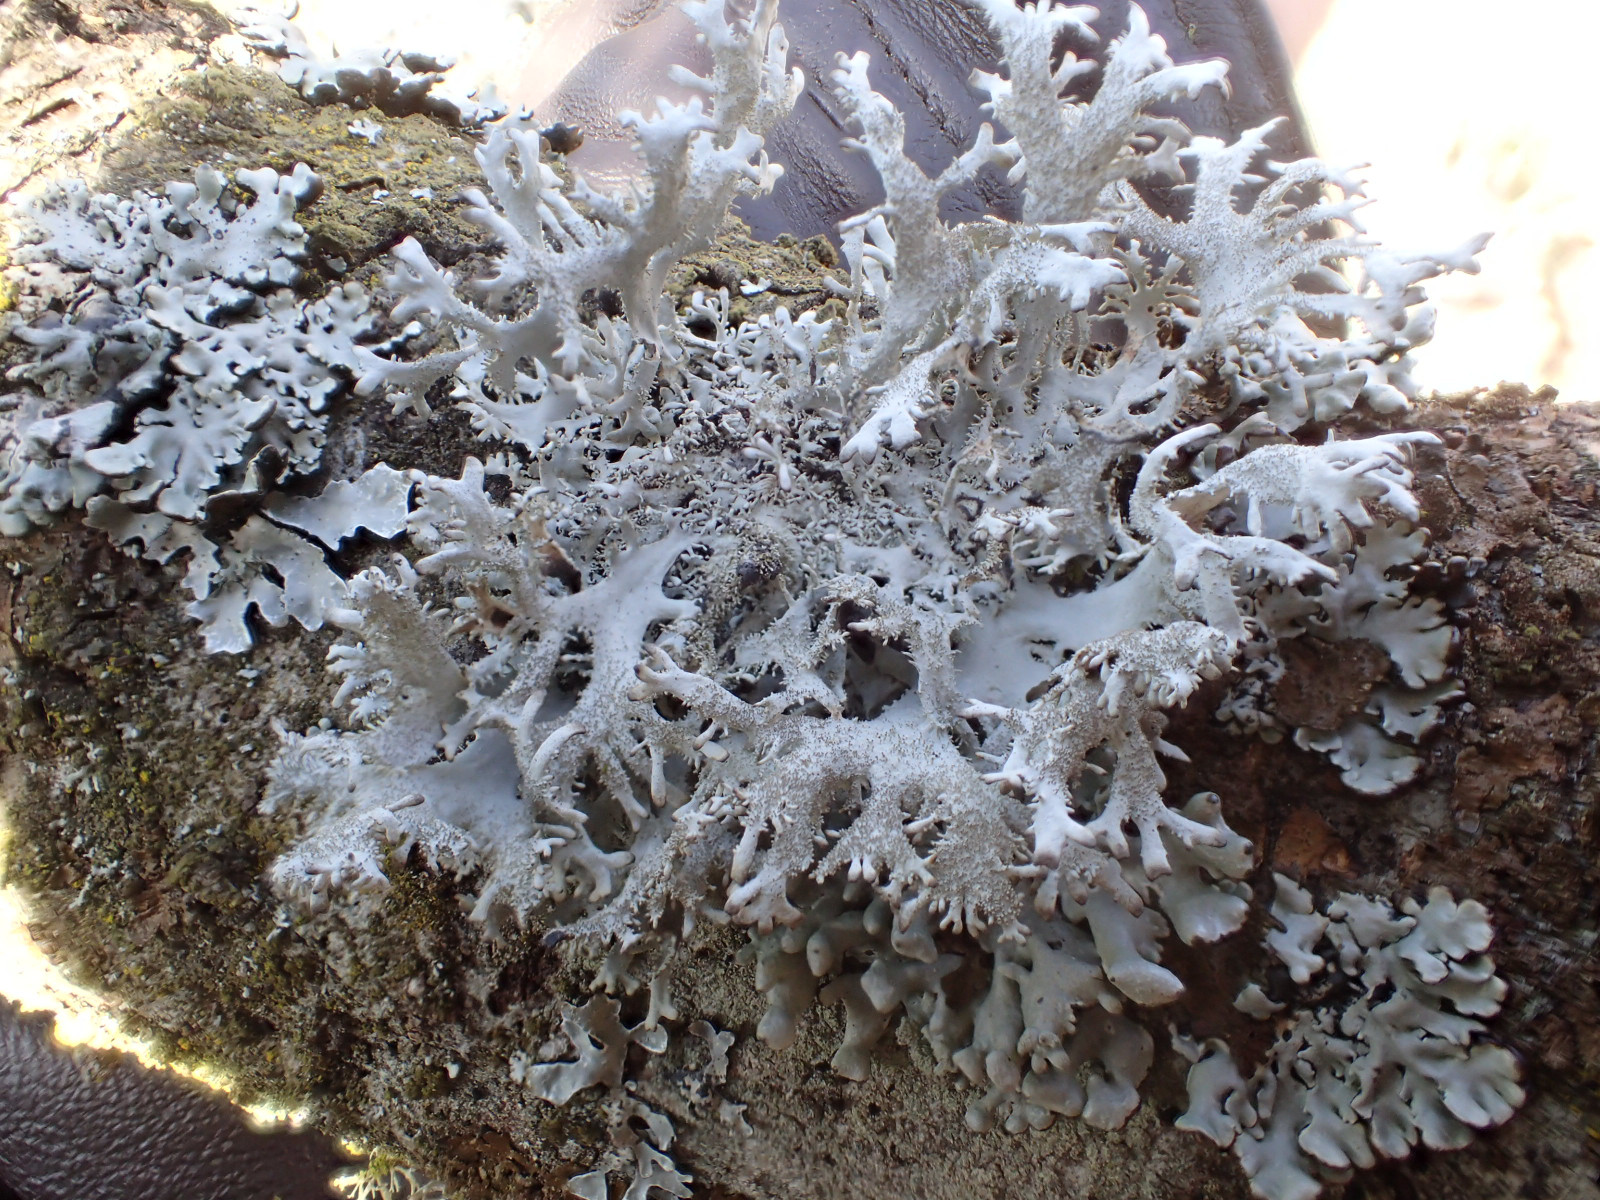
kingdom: Fungi
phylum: Ascomycota
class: Lecanoromycetes
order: Lecanorales
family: Parmeliaceae
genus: Pseudevernia
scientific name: Pseudevernia furfuracea
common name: grå fyrrelav
